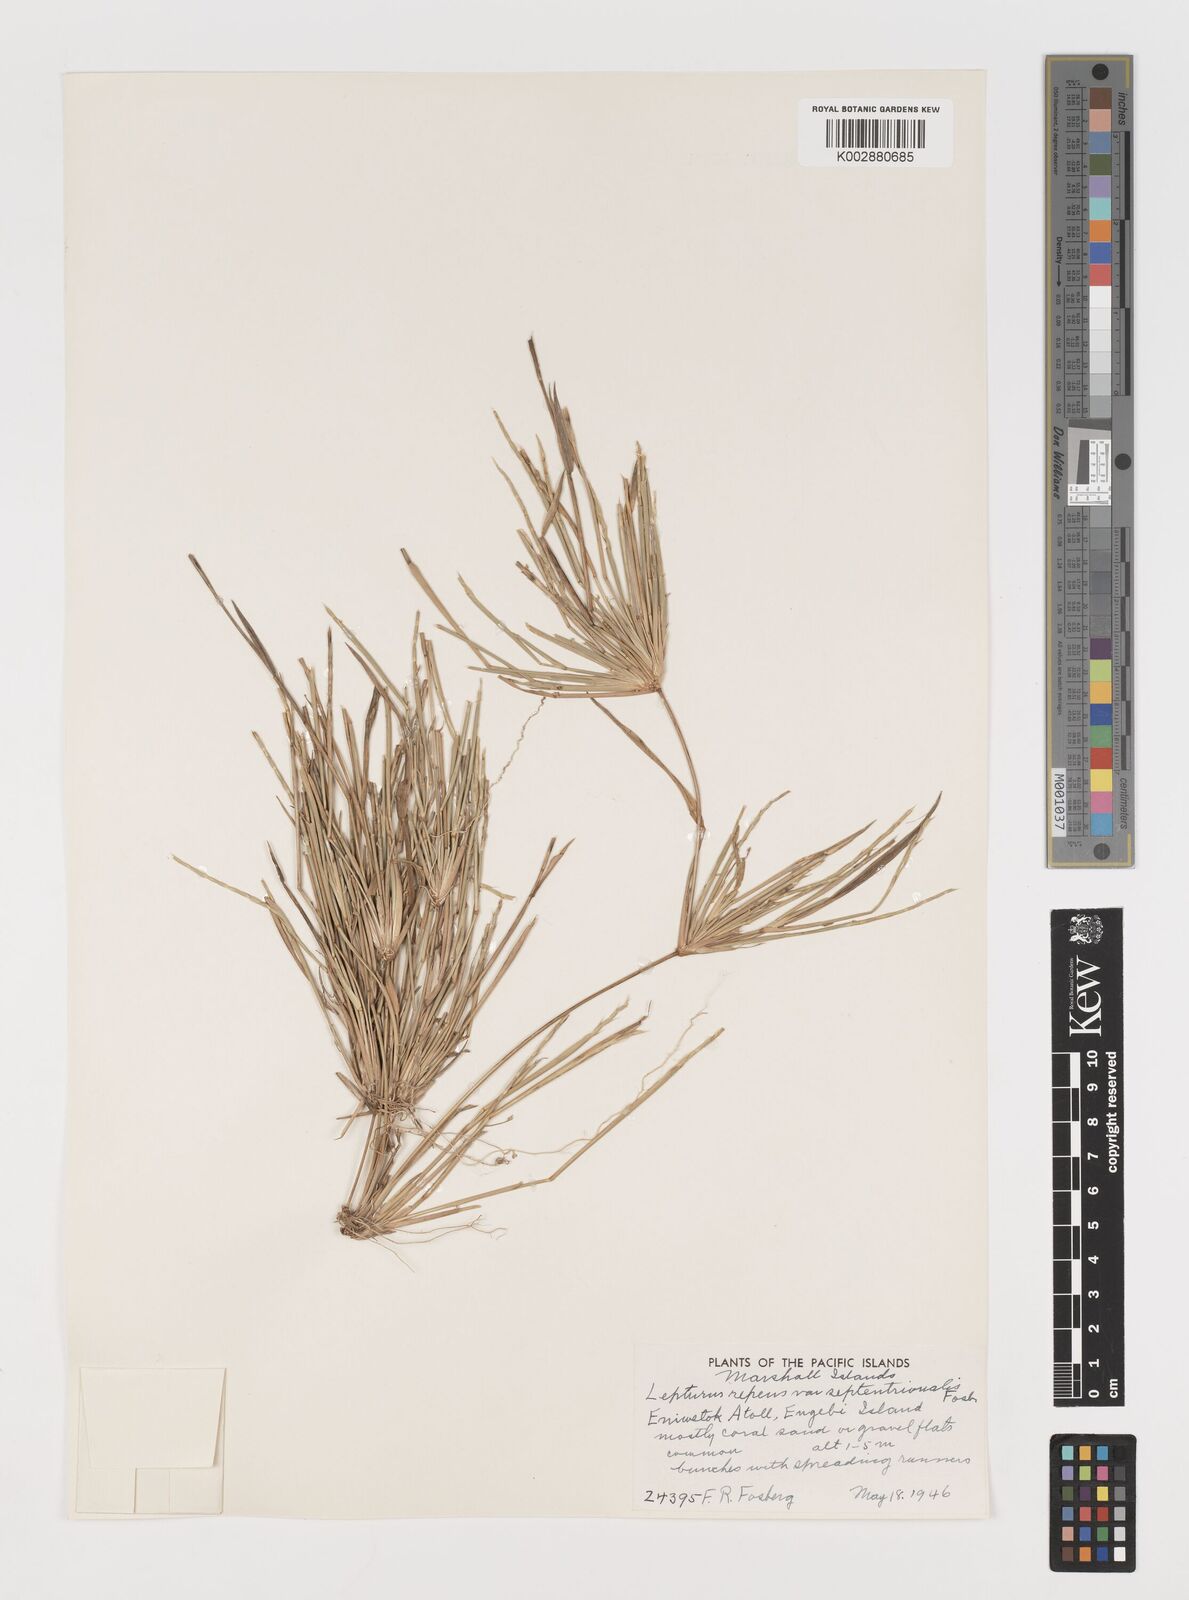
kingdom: Plantae
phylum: Tracheophyta
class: Liliopsida
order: Poales
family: Poaceae
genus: Lepturus
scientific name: Lepturus repens
